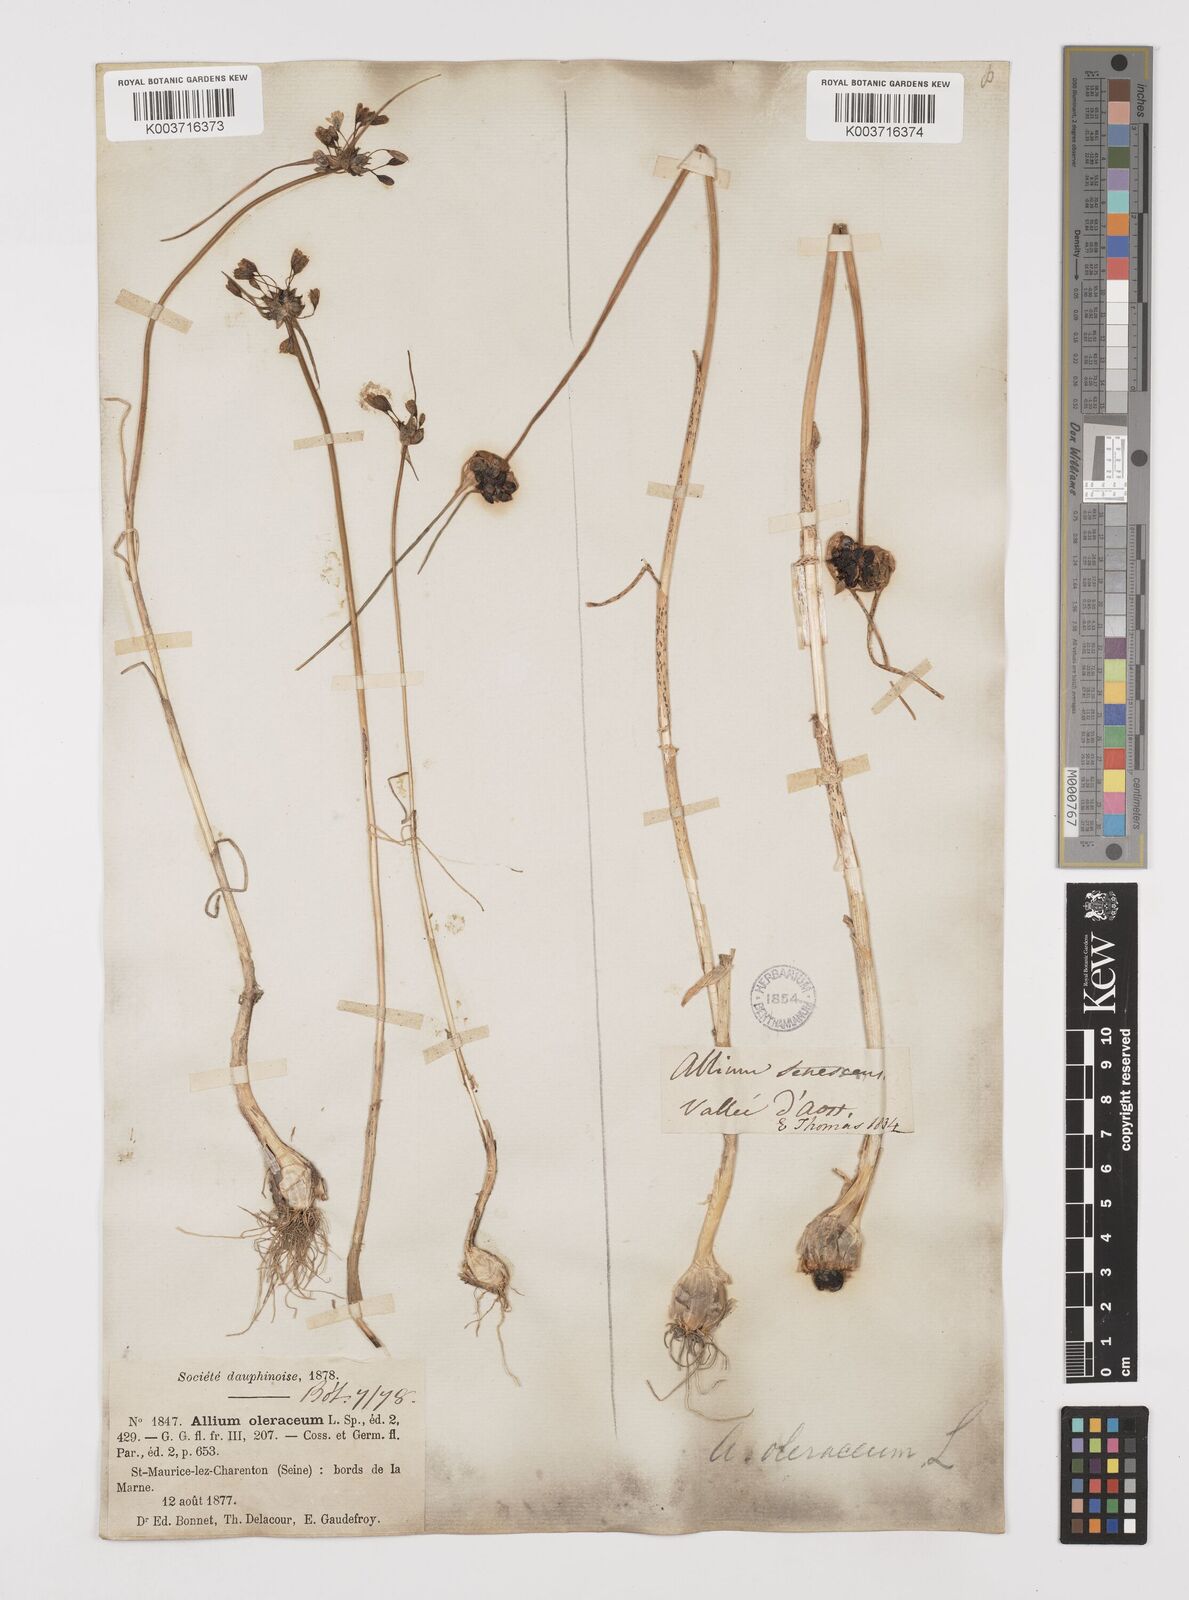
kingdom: Plantae
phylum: Tracheophyta
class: Liliopsida
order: Asparagales
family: Amaryllidaceae
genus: Allium
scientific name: Allium oleraceum
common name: Field garlic
